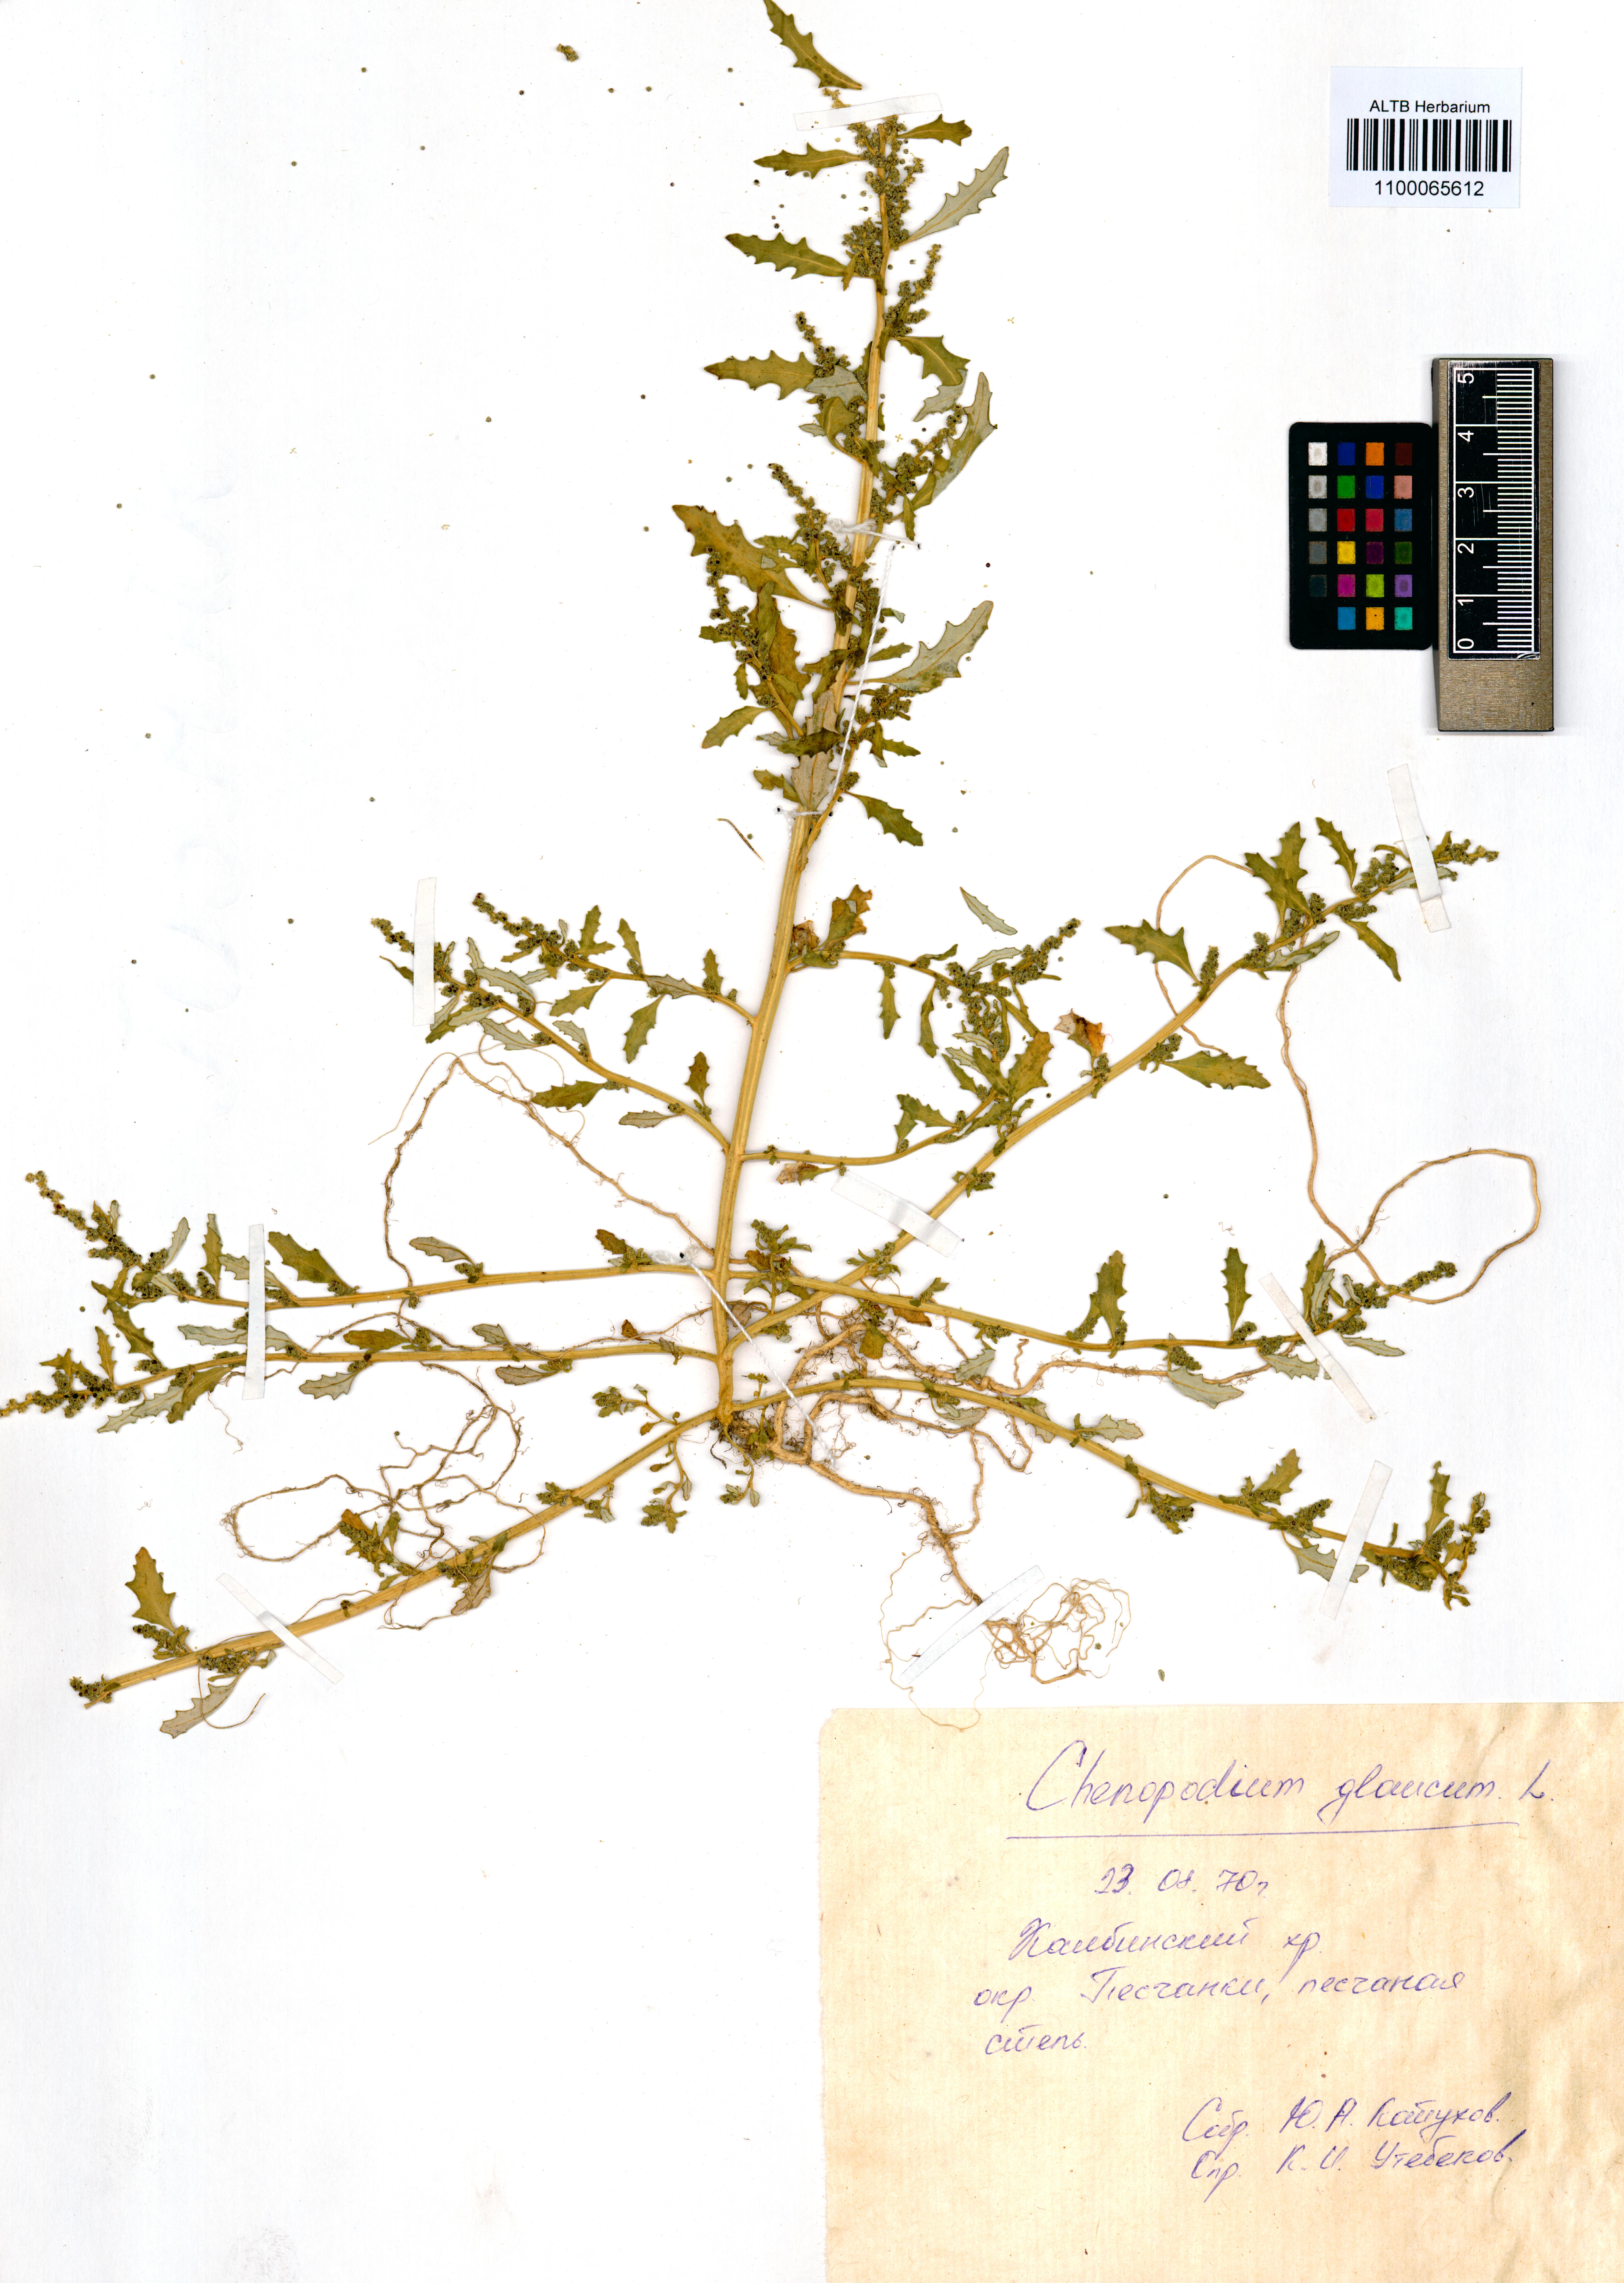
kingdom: Plantae
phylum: Tracheophyta
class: Magnoliopsida
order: Caryophyllales
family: Amaranthaceae
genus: Oxybasis
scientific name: Oxybasis glauca
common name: Glaucous goosefoot
